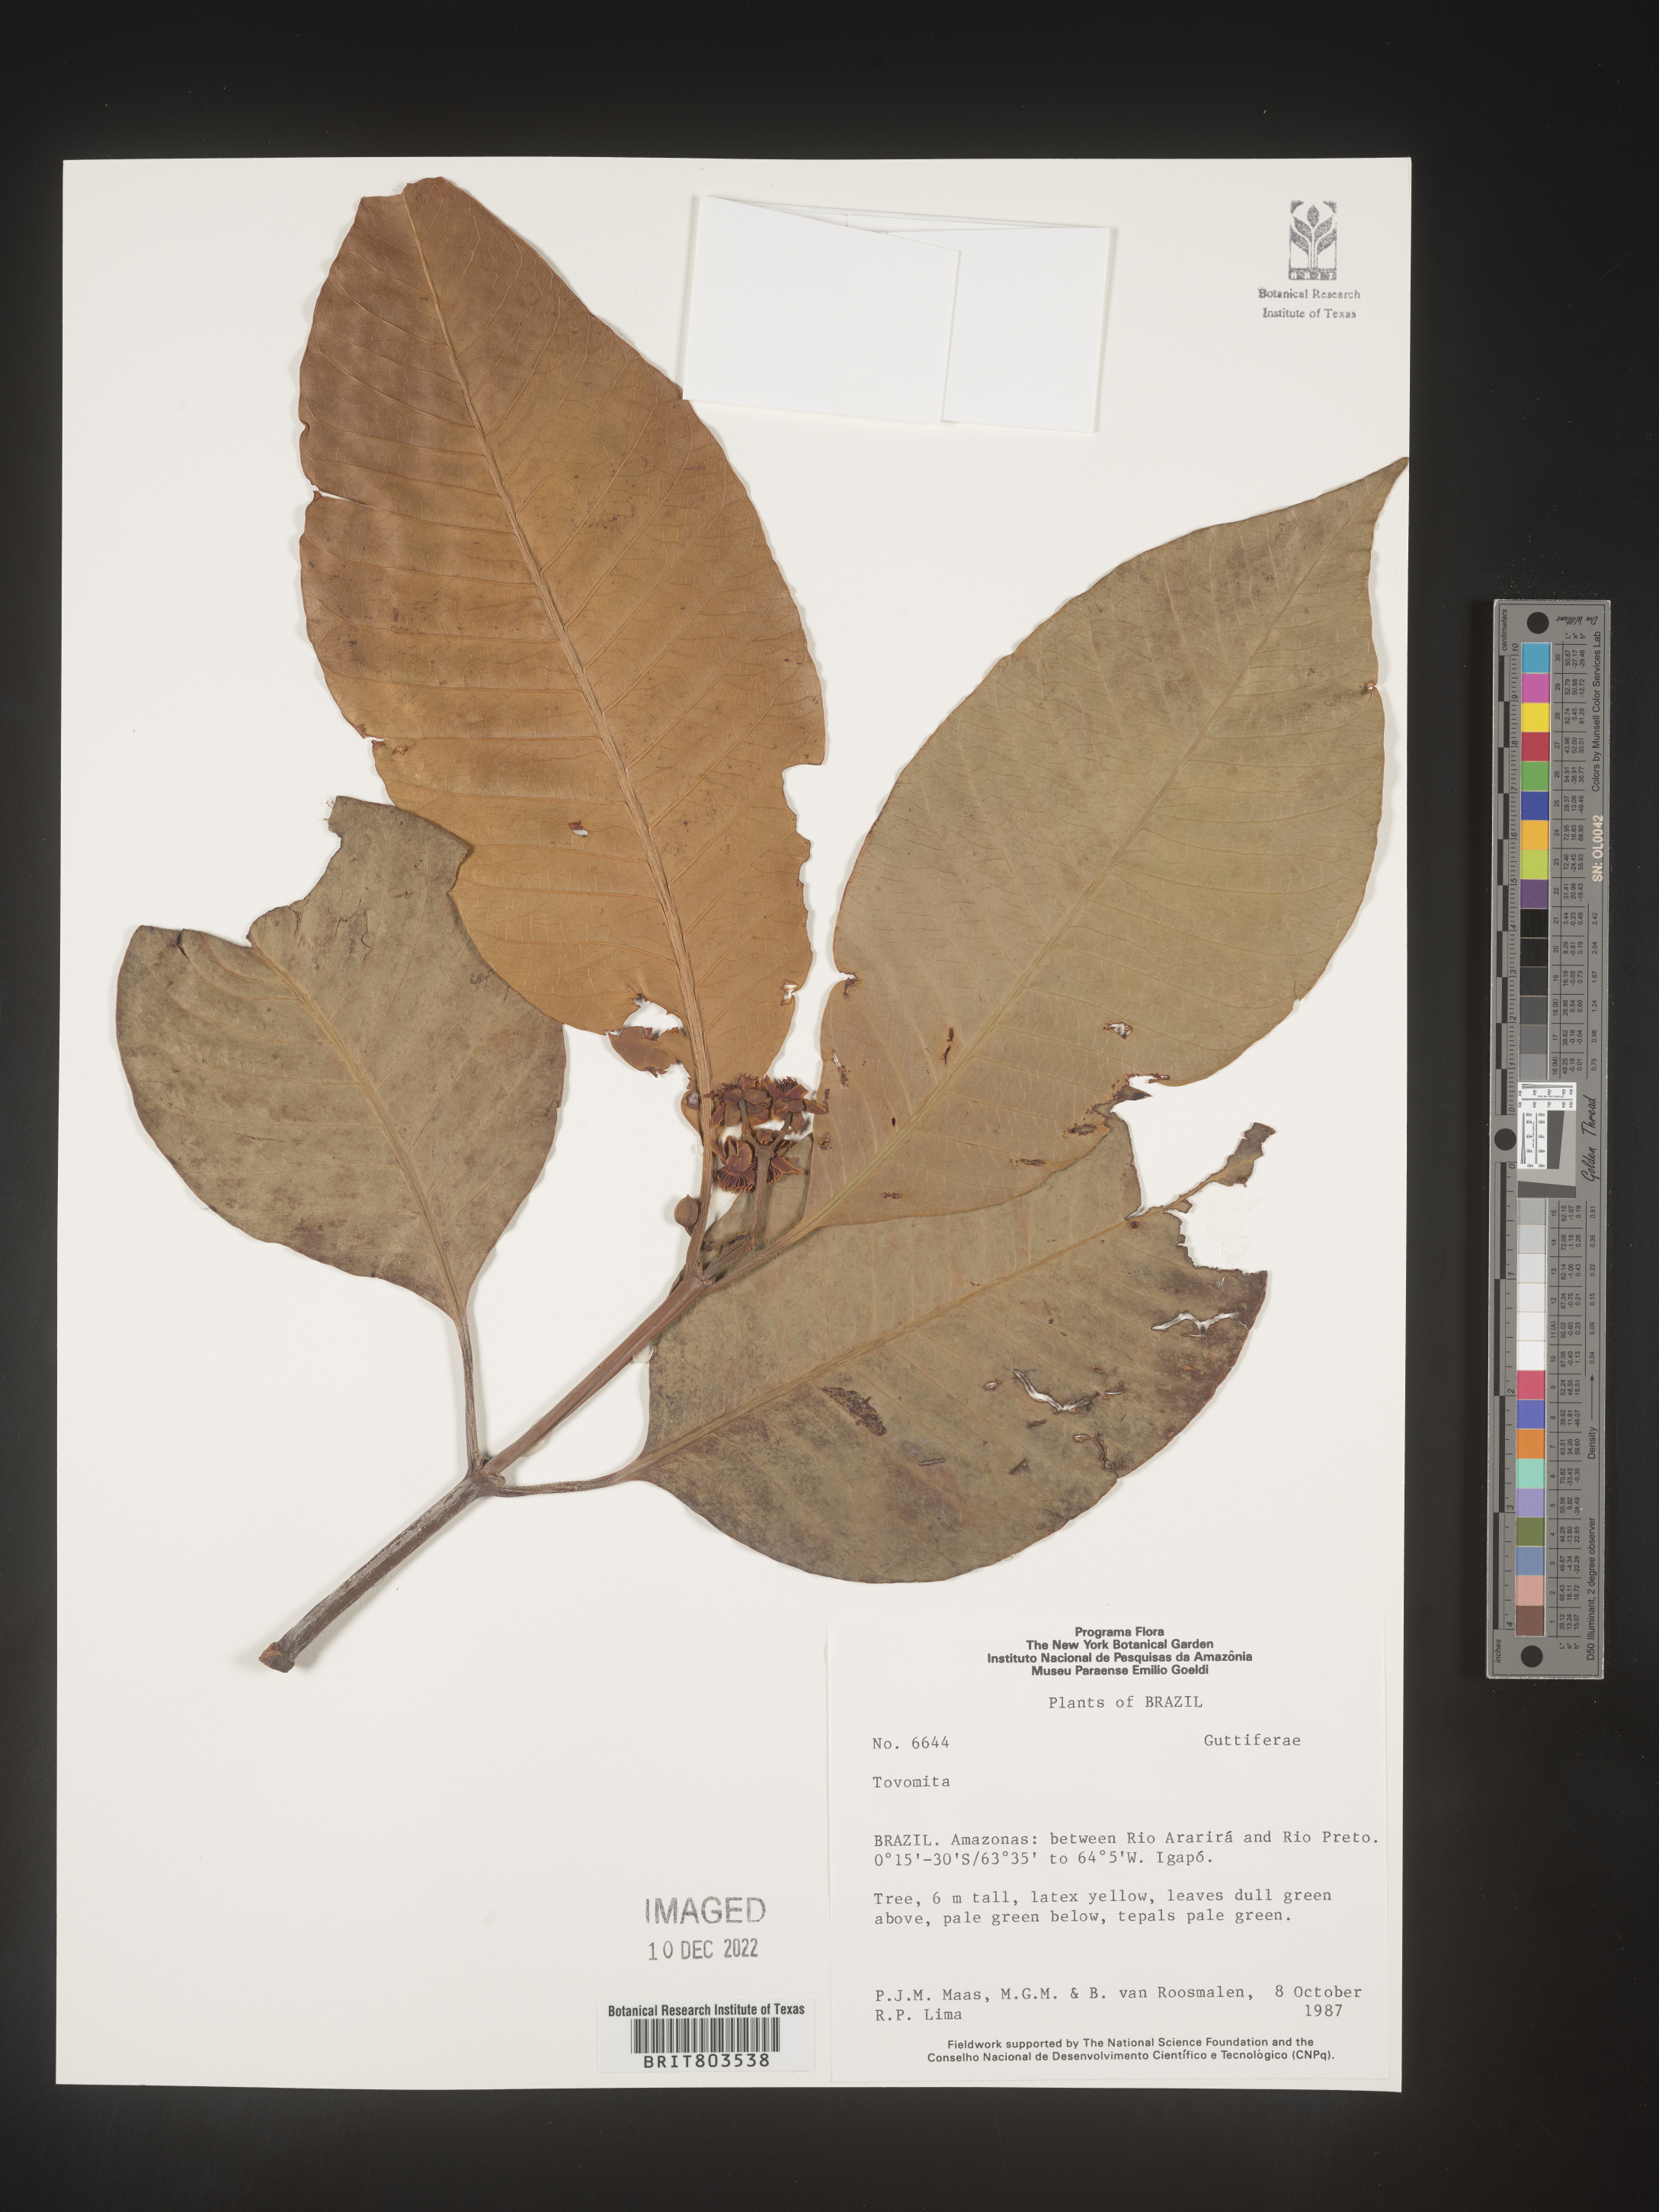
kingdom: Plantae
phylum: Tracheophyta
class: Magnoliopsida
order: Malpighiales
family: Clusiaceae
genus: Tovomita
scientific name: Tovomita
